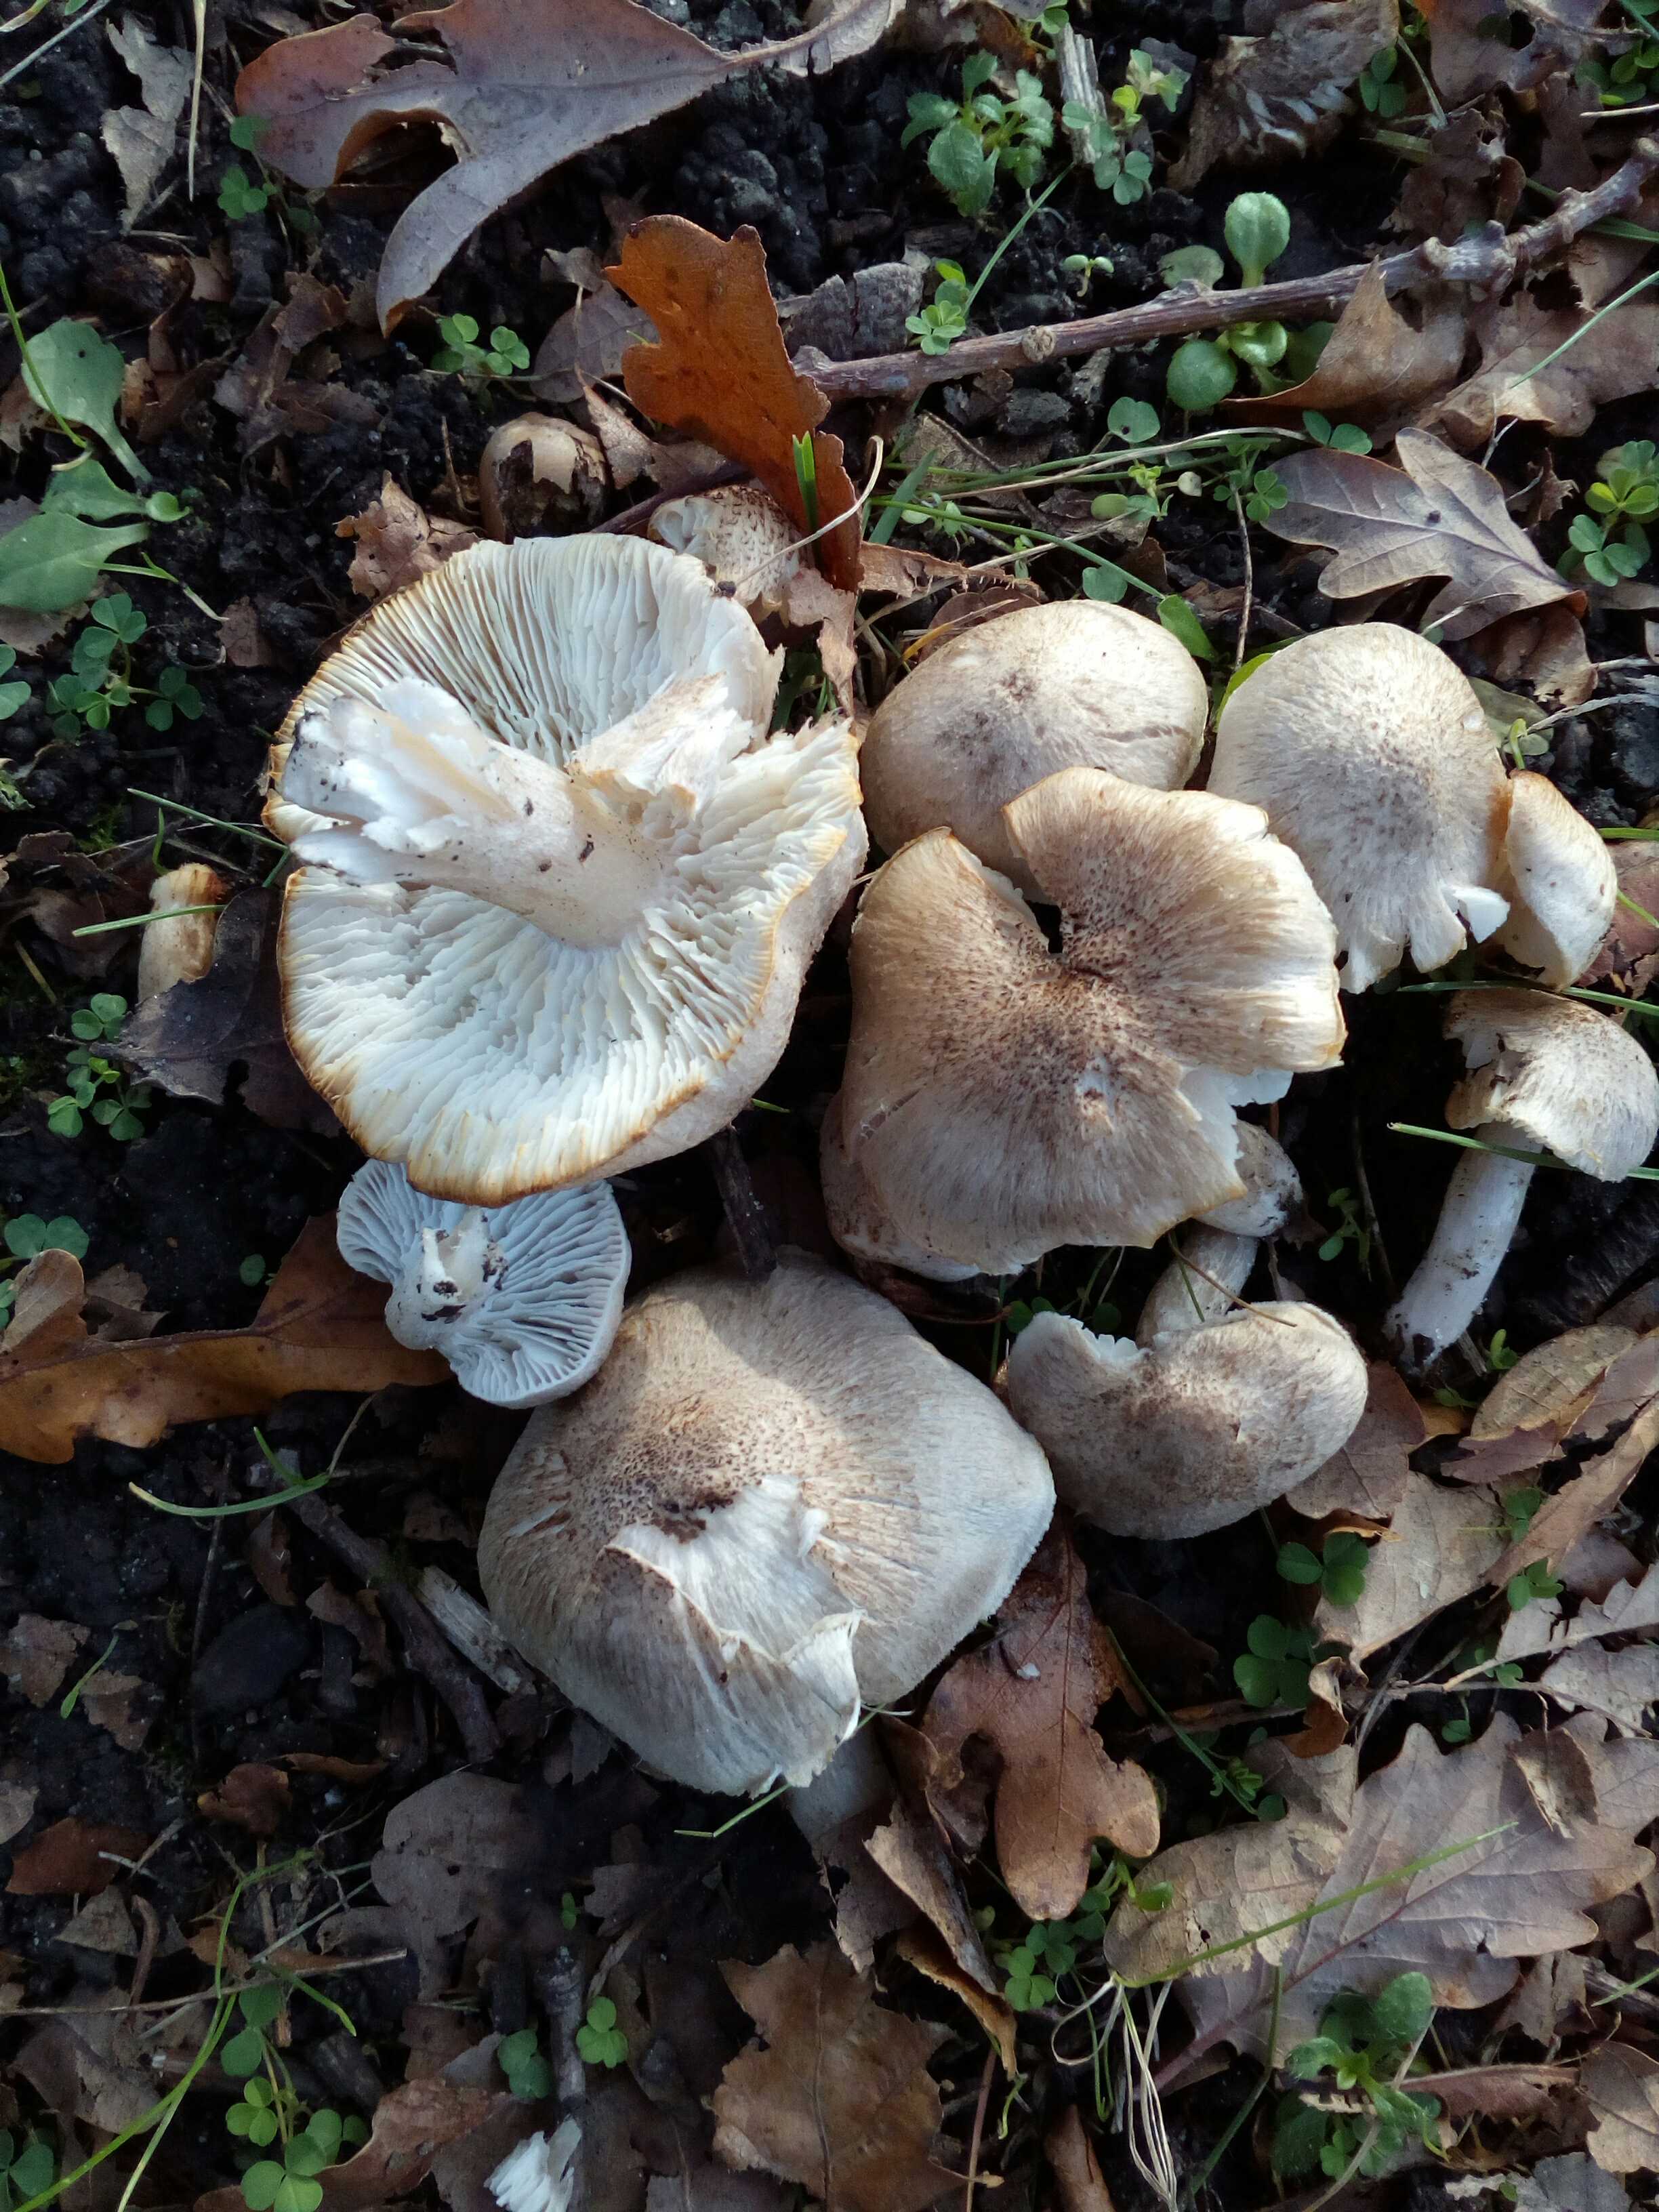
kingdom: Fungi
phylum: Basidiomycota
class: Agaricomycetes
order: Agaricales
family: Tricholomataceae
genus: Tricholoma
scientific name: Tricholoma scalpturatum
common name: gulplettet ridderhat
